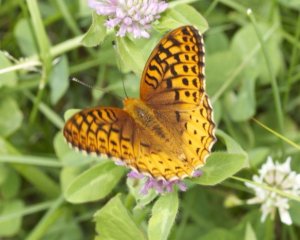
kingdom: Animalia
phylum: Arthropoda
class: Insecta
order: Lepidoptera
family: Nymphalidae
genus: Speyeria
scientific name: Speyeria cybele
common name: Great Spangled Fritillary
